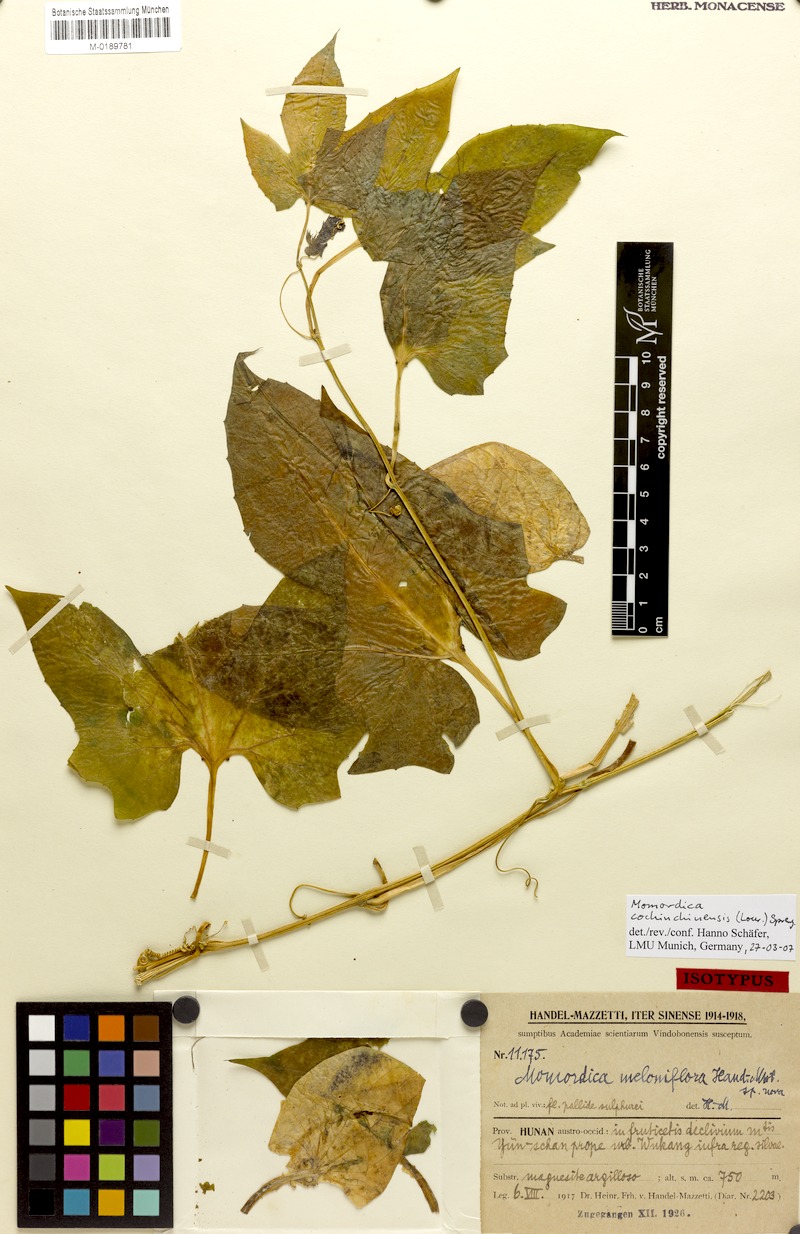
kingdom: Plantae
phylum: Tracheophyta
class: Magnoliopsida
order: Cucurbitales
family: Cucurbitaceae
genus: Momordica
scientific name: Momordica cochinchinensis
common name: Chinese bitter-cucumber
